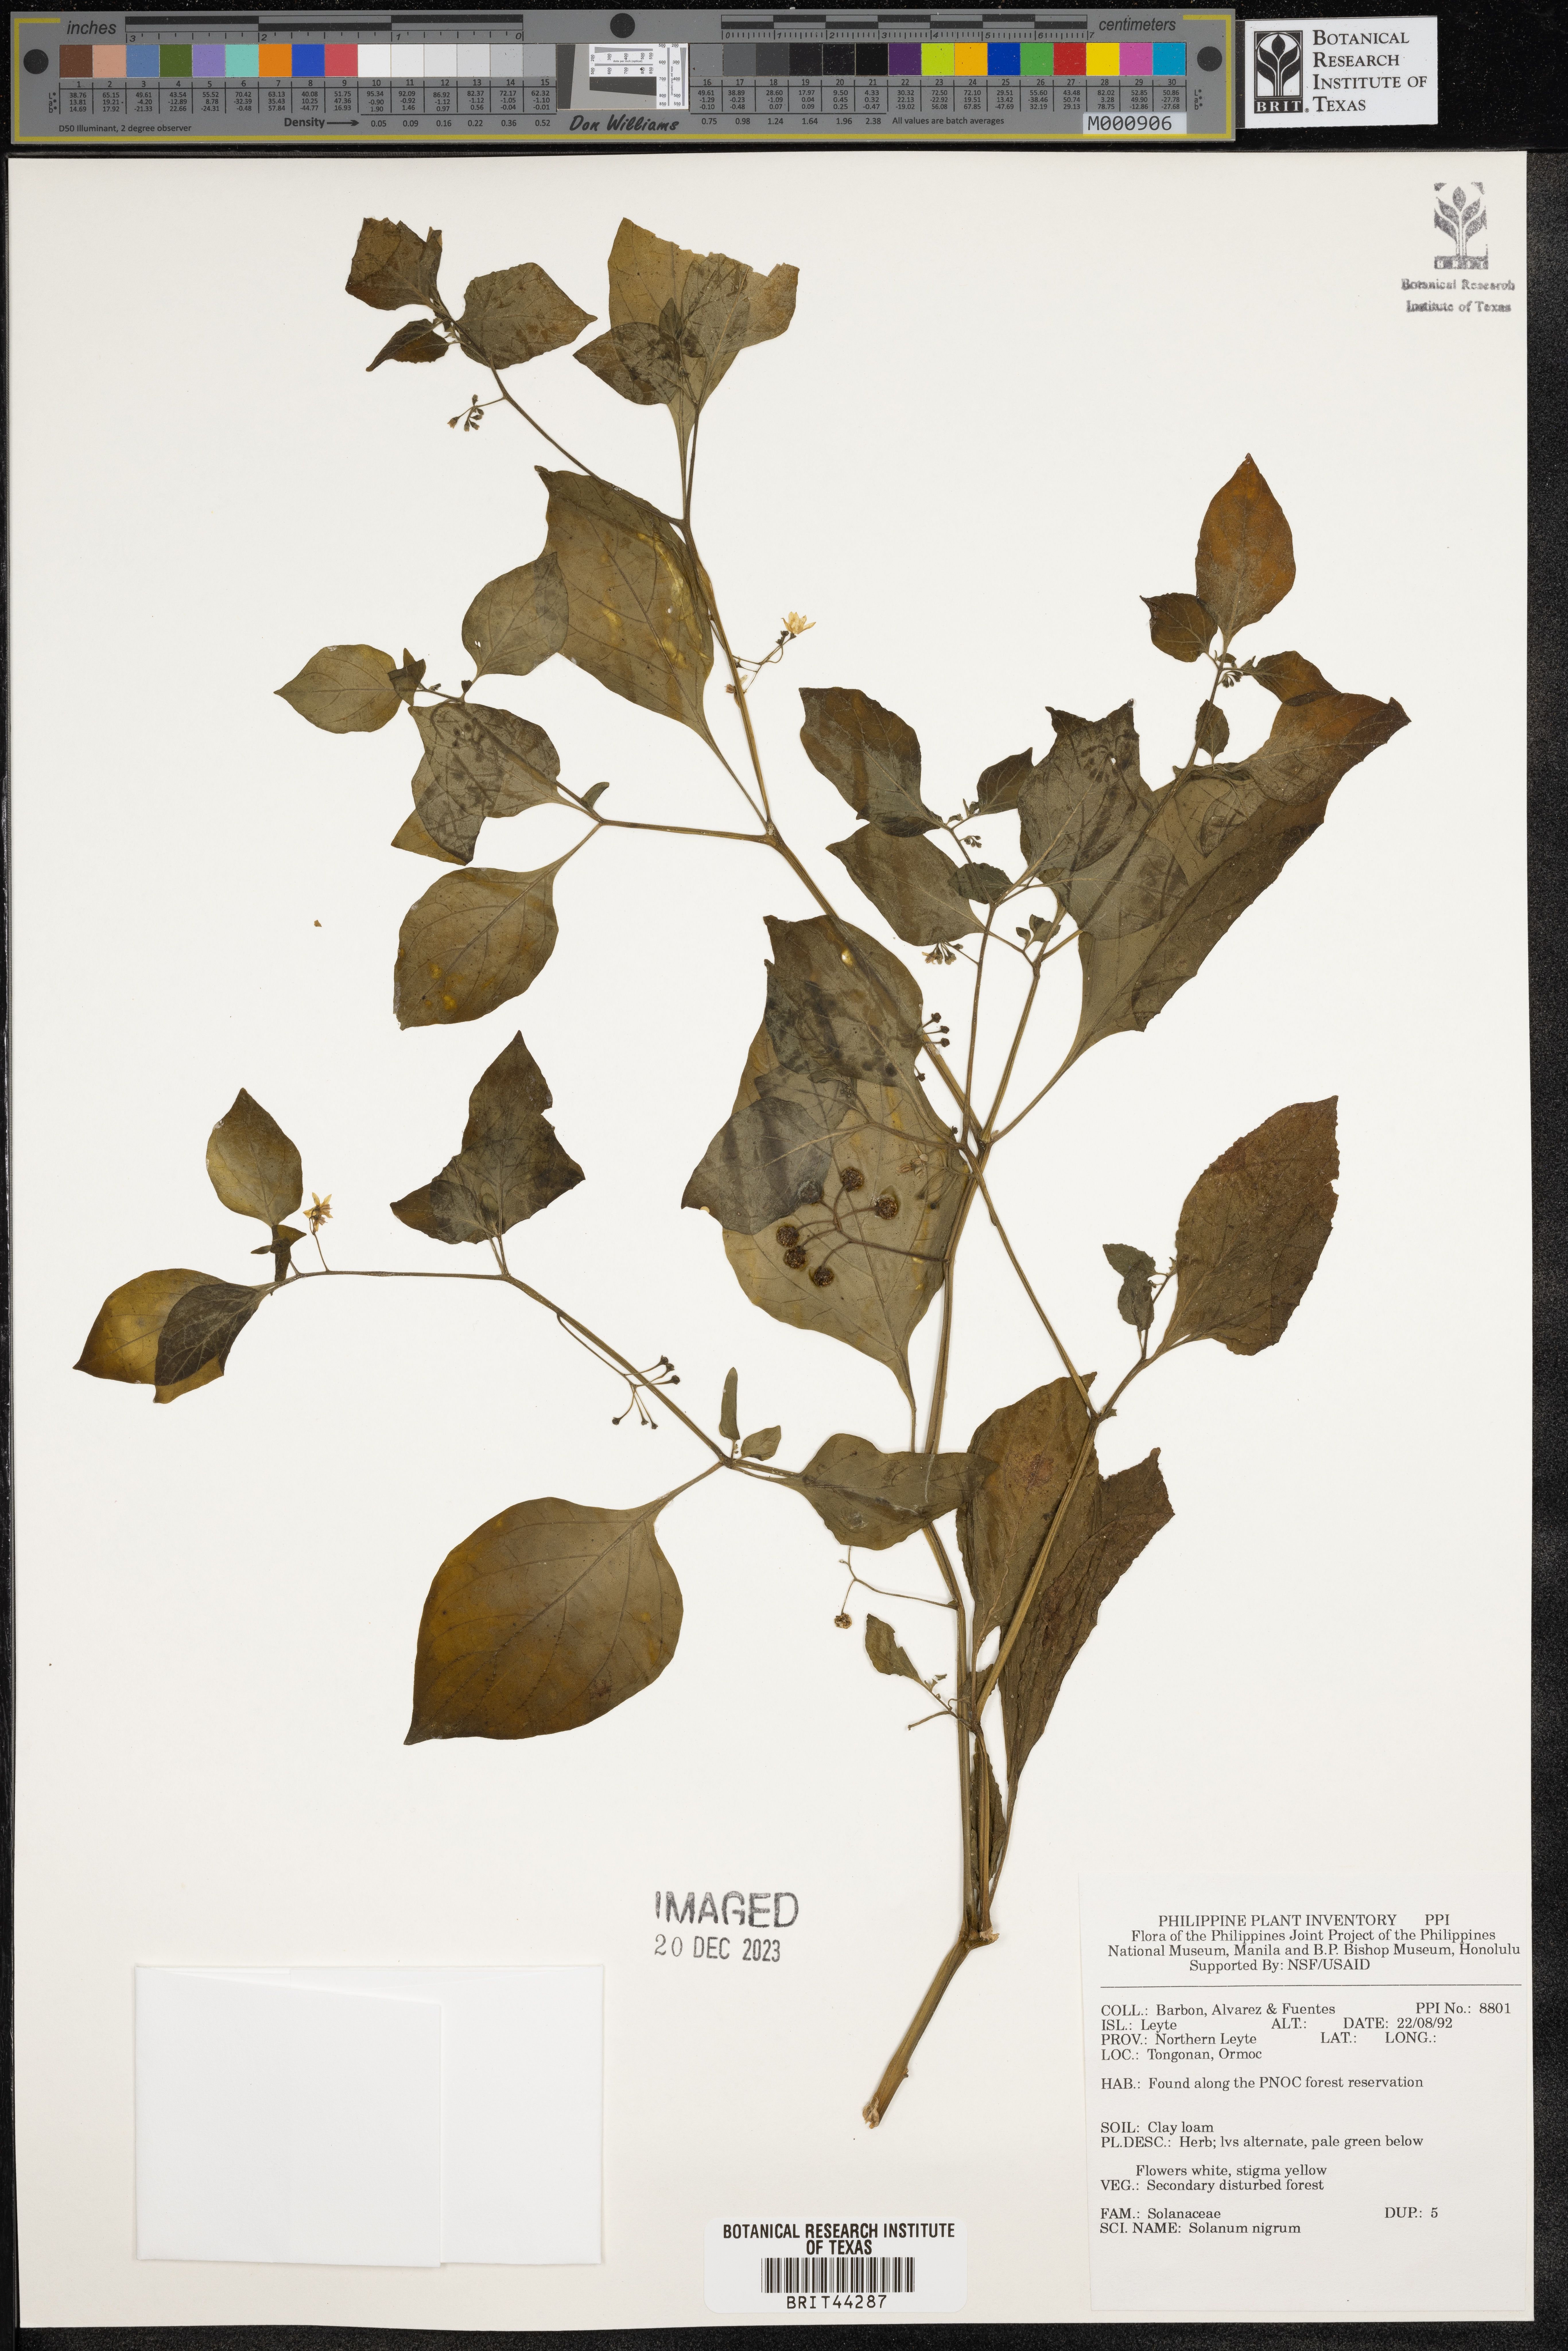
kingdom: Plantae
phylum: Tracheophyta
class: Magnoliopsida
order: Solanales
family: Solanaceae
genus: Solanum
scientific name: Solanum nigrum
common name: Black nightshade
